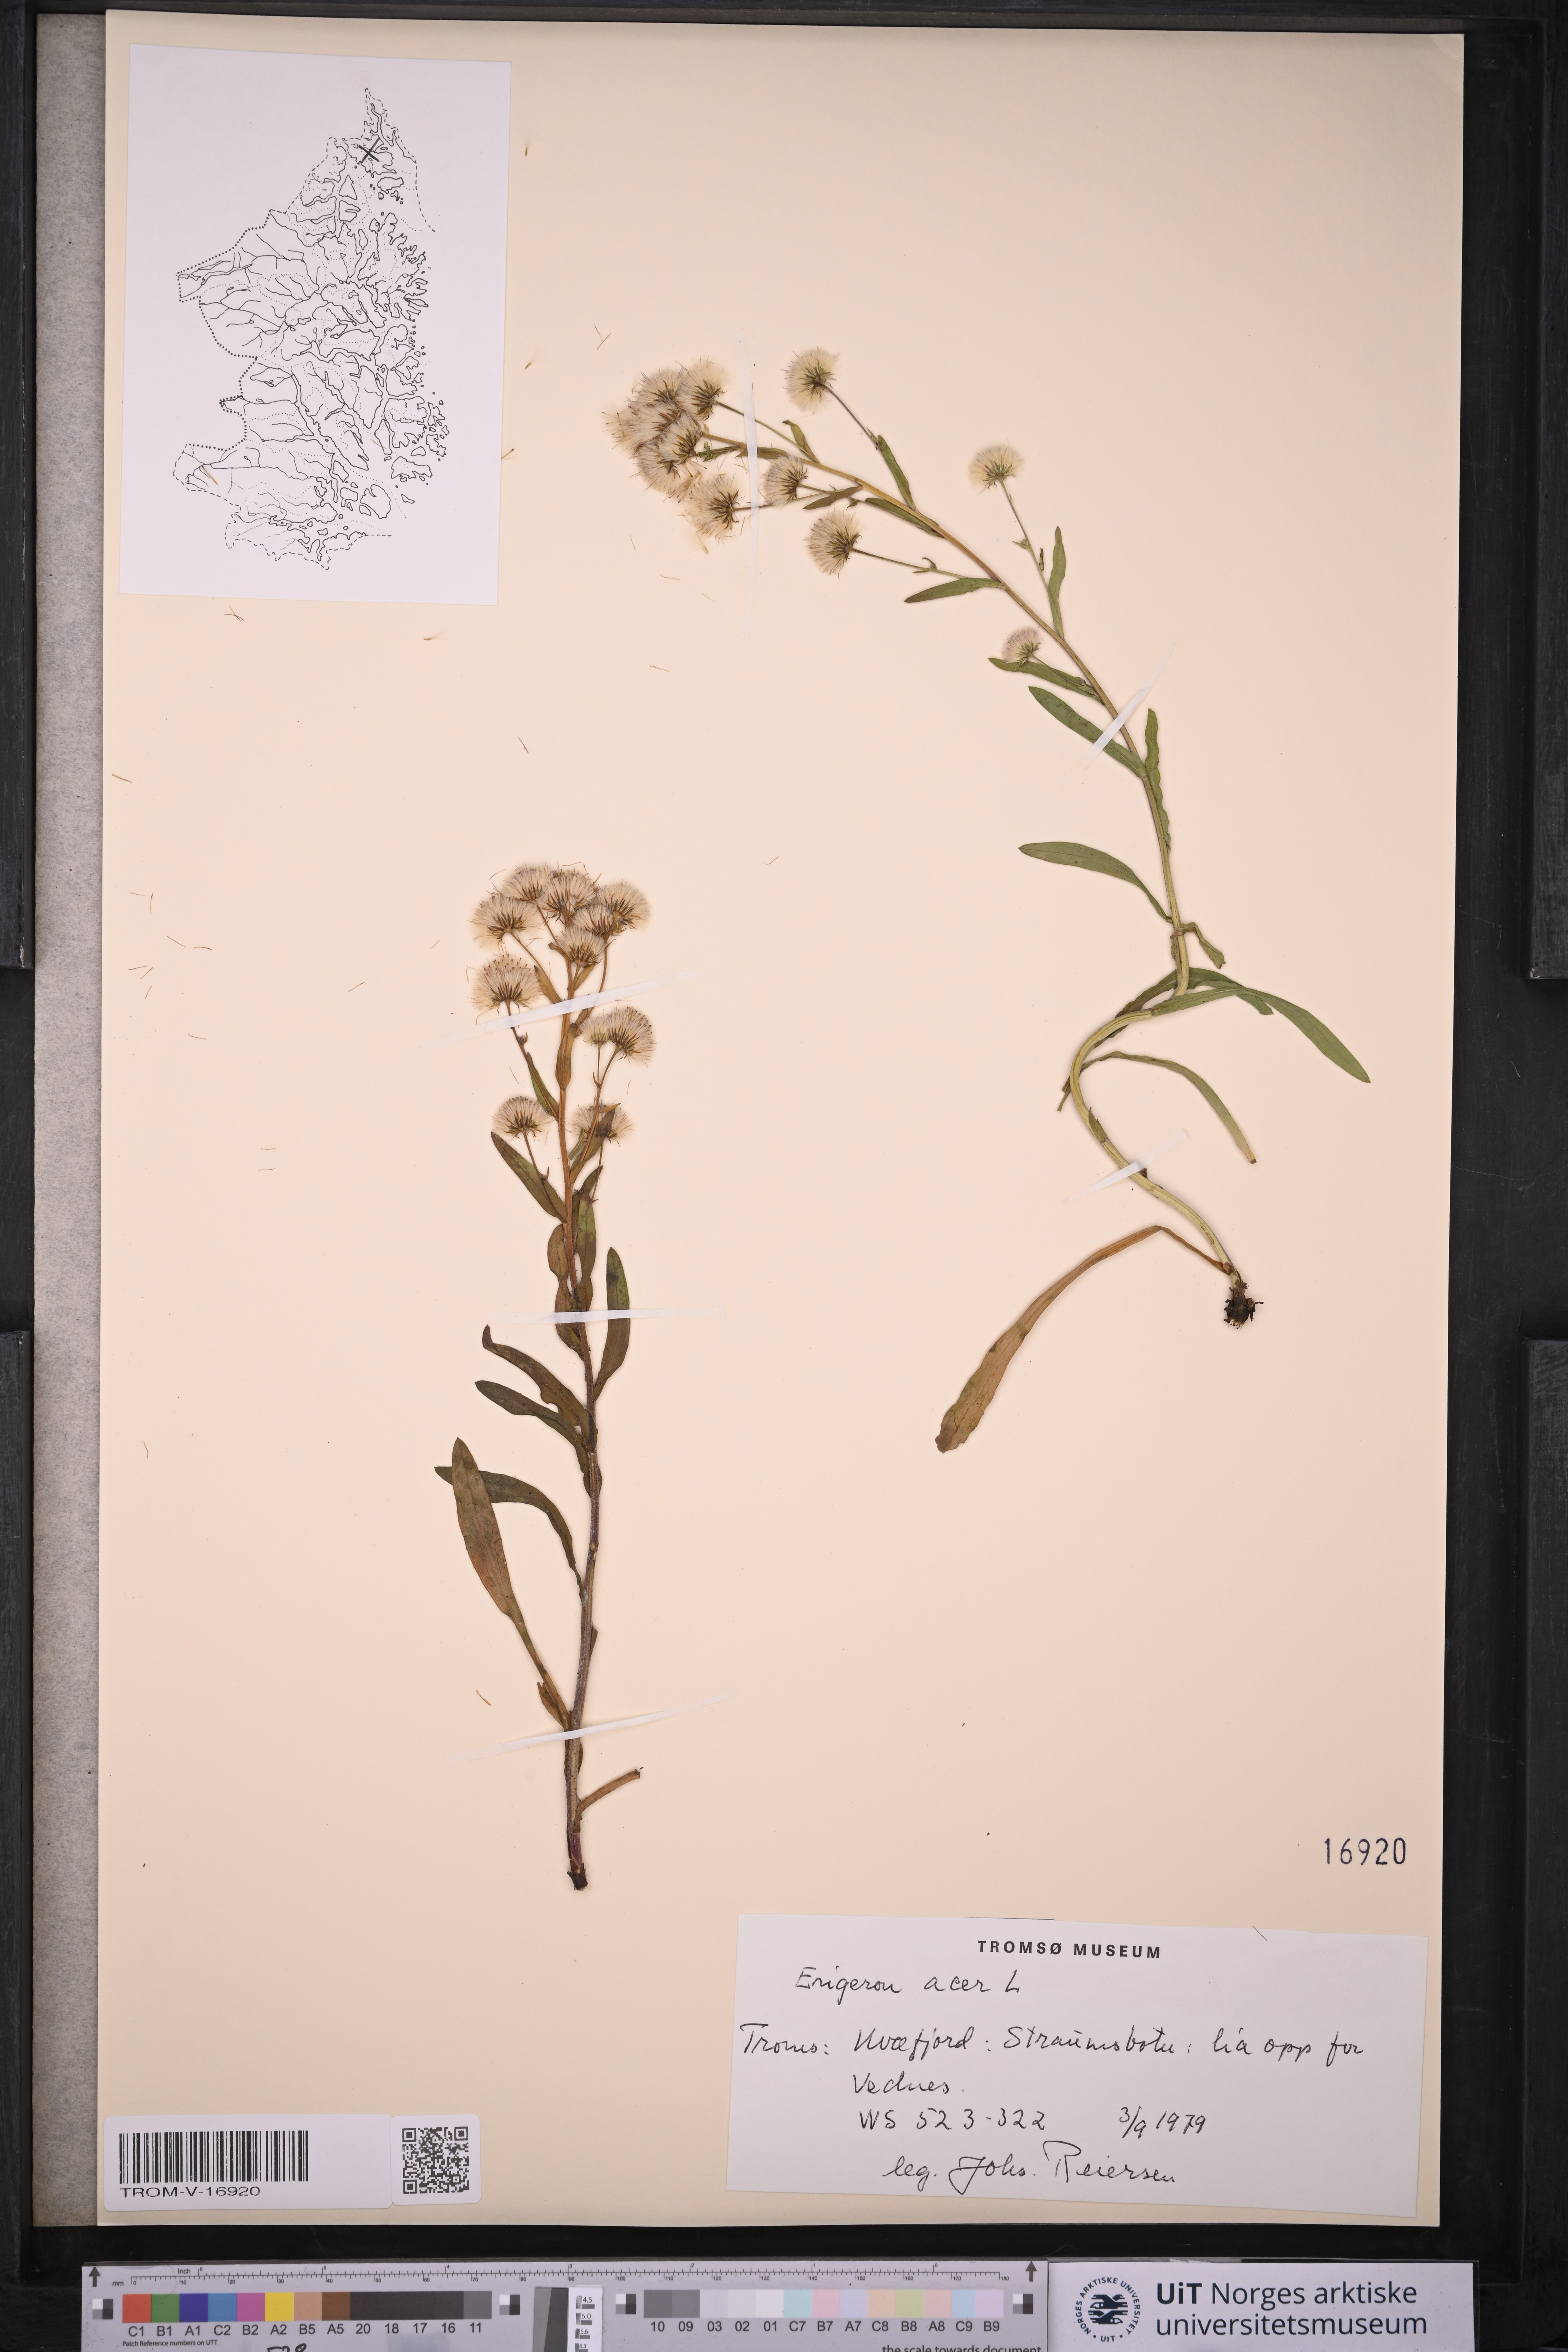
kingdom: Plantae
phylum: Tracheophyta
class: Magnoliopsida
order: Asterales
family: Asteraceae
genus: Erigeron
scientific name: Erigeron acris
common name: Blue fleabane
